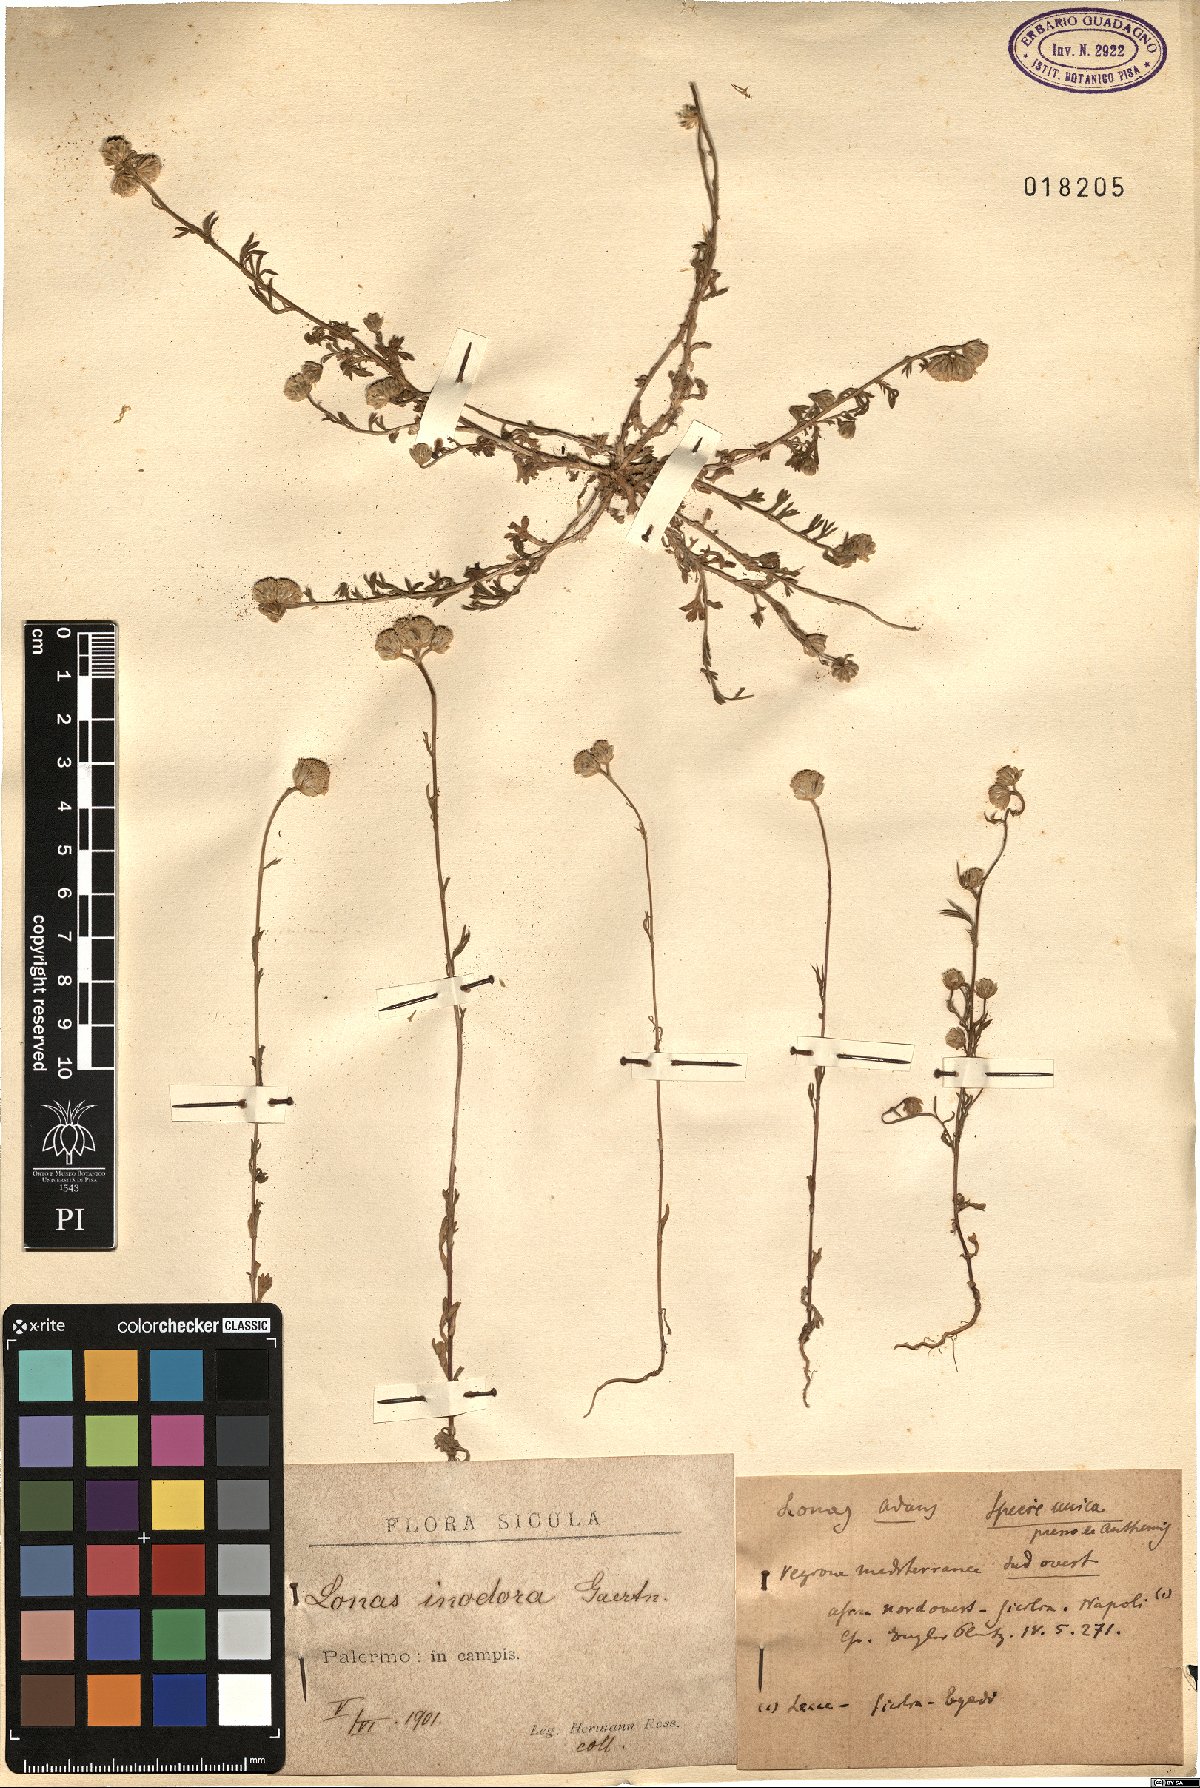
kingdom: Plantae
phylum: Tracheophyta
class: Magnoliopsida
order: Asterales
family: Asteraceae
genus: Lonas
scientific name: Lonas annua
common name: African daisy
